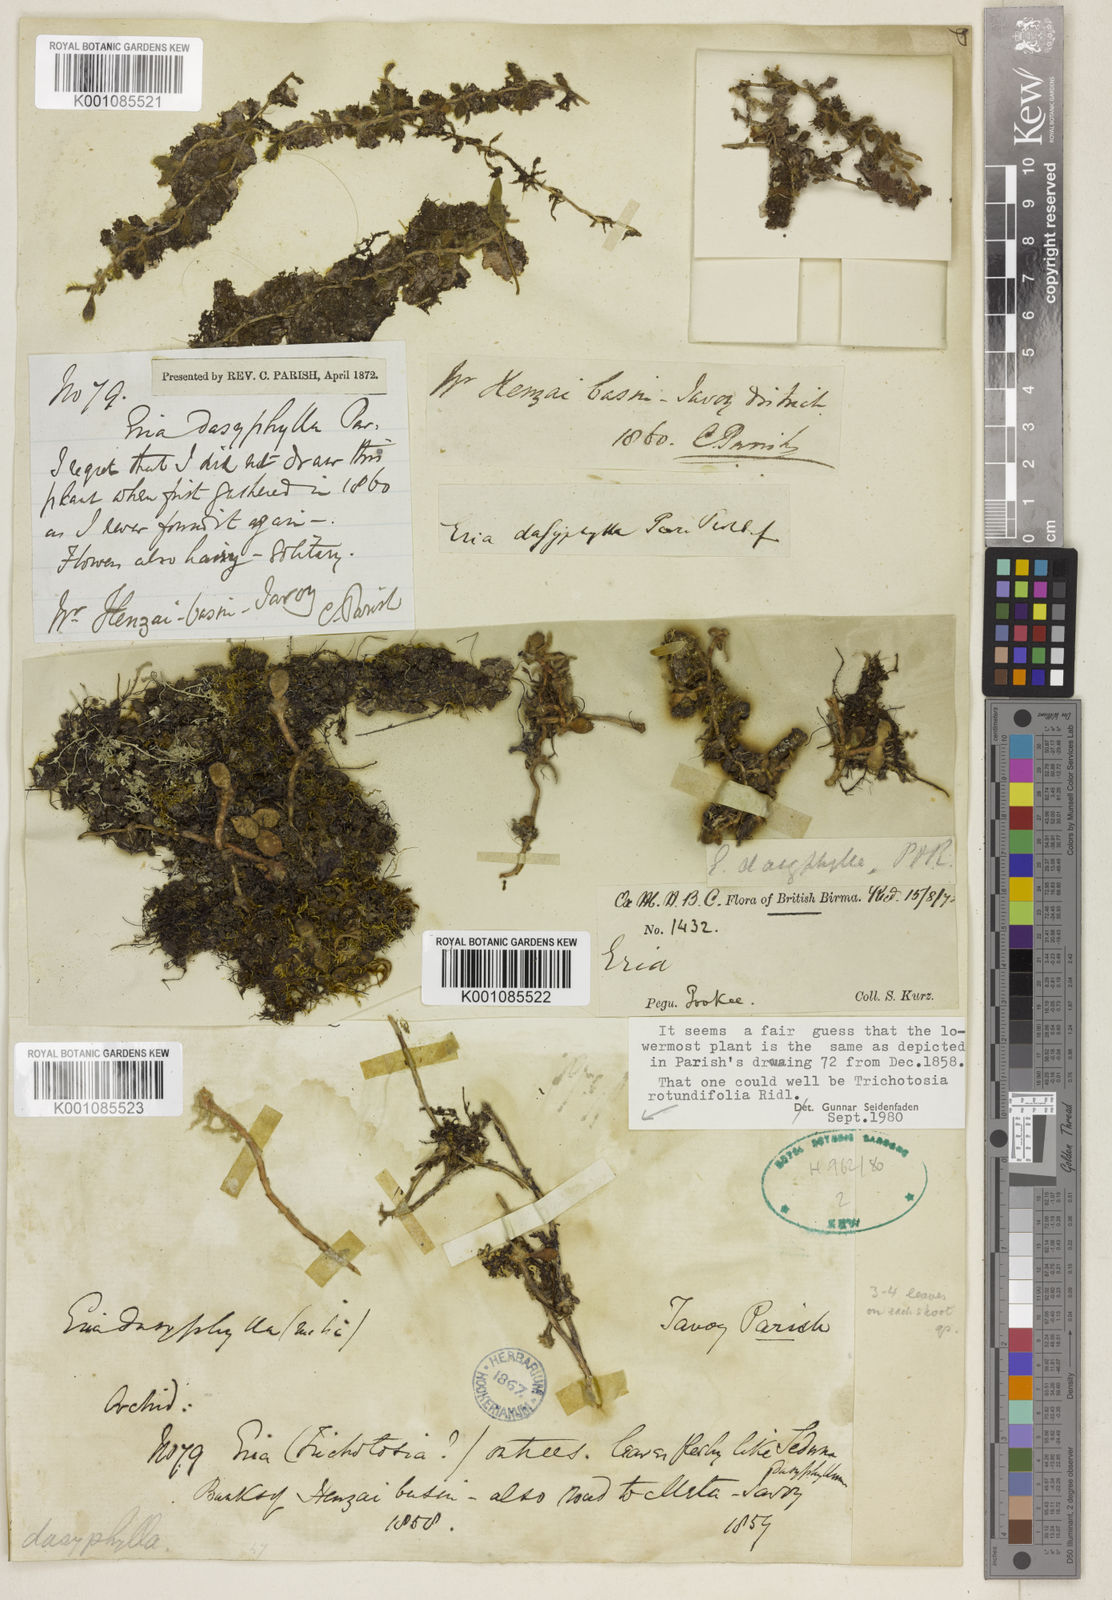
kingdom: Plantae
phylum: Tracheophyta
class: Liliopsida
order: Asparagales
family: Orchidaceae
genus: Trichotosia
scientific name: Trichotosia dasyphylla
